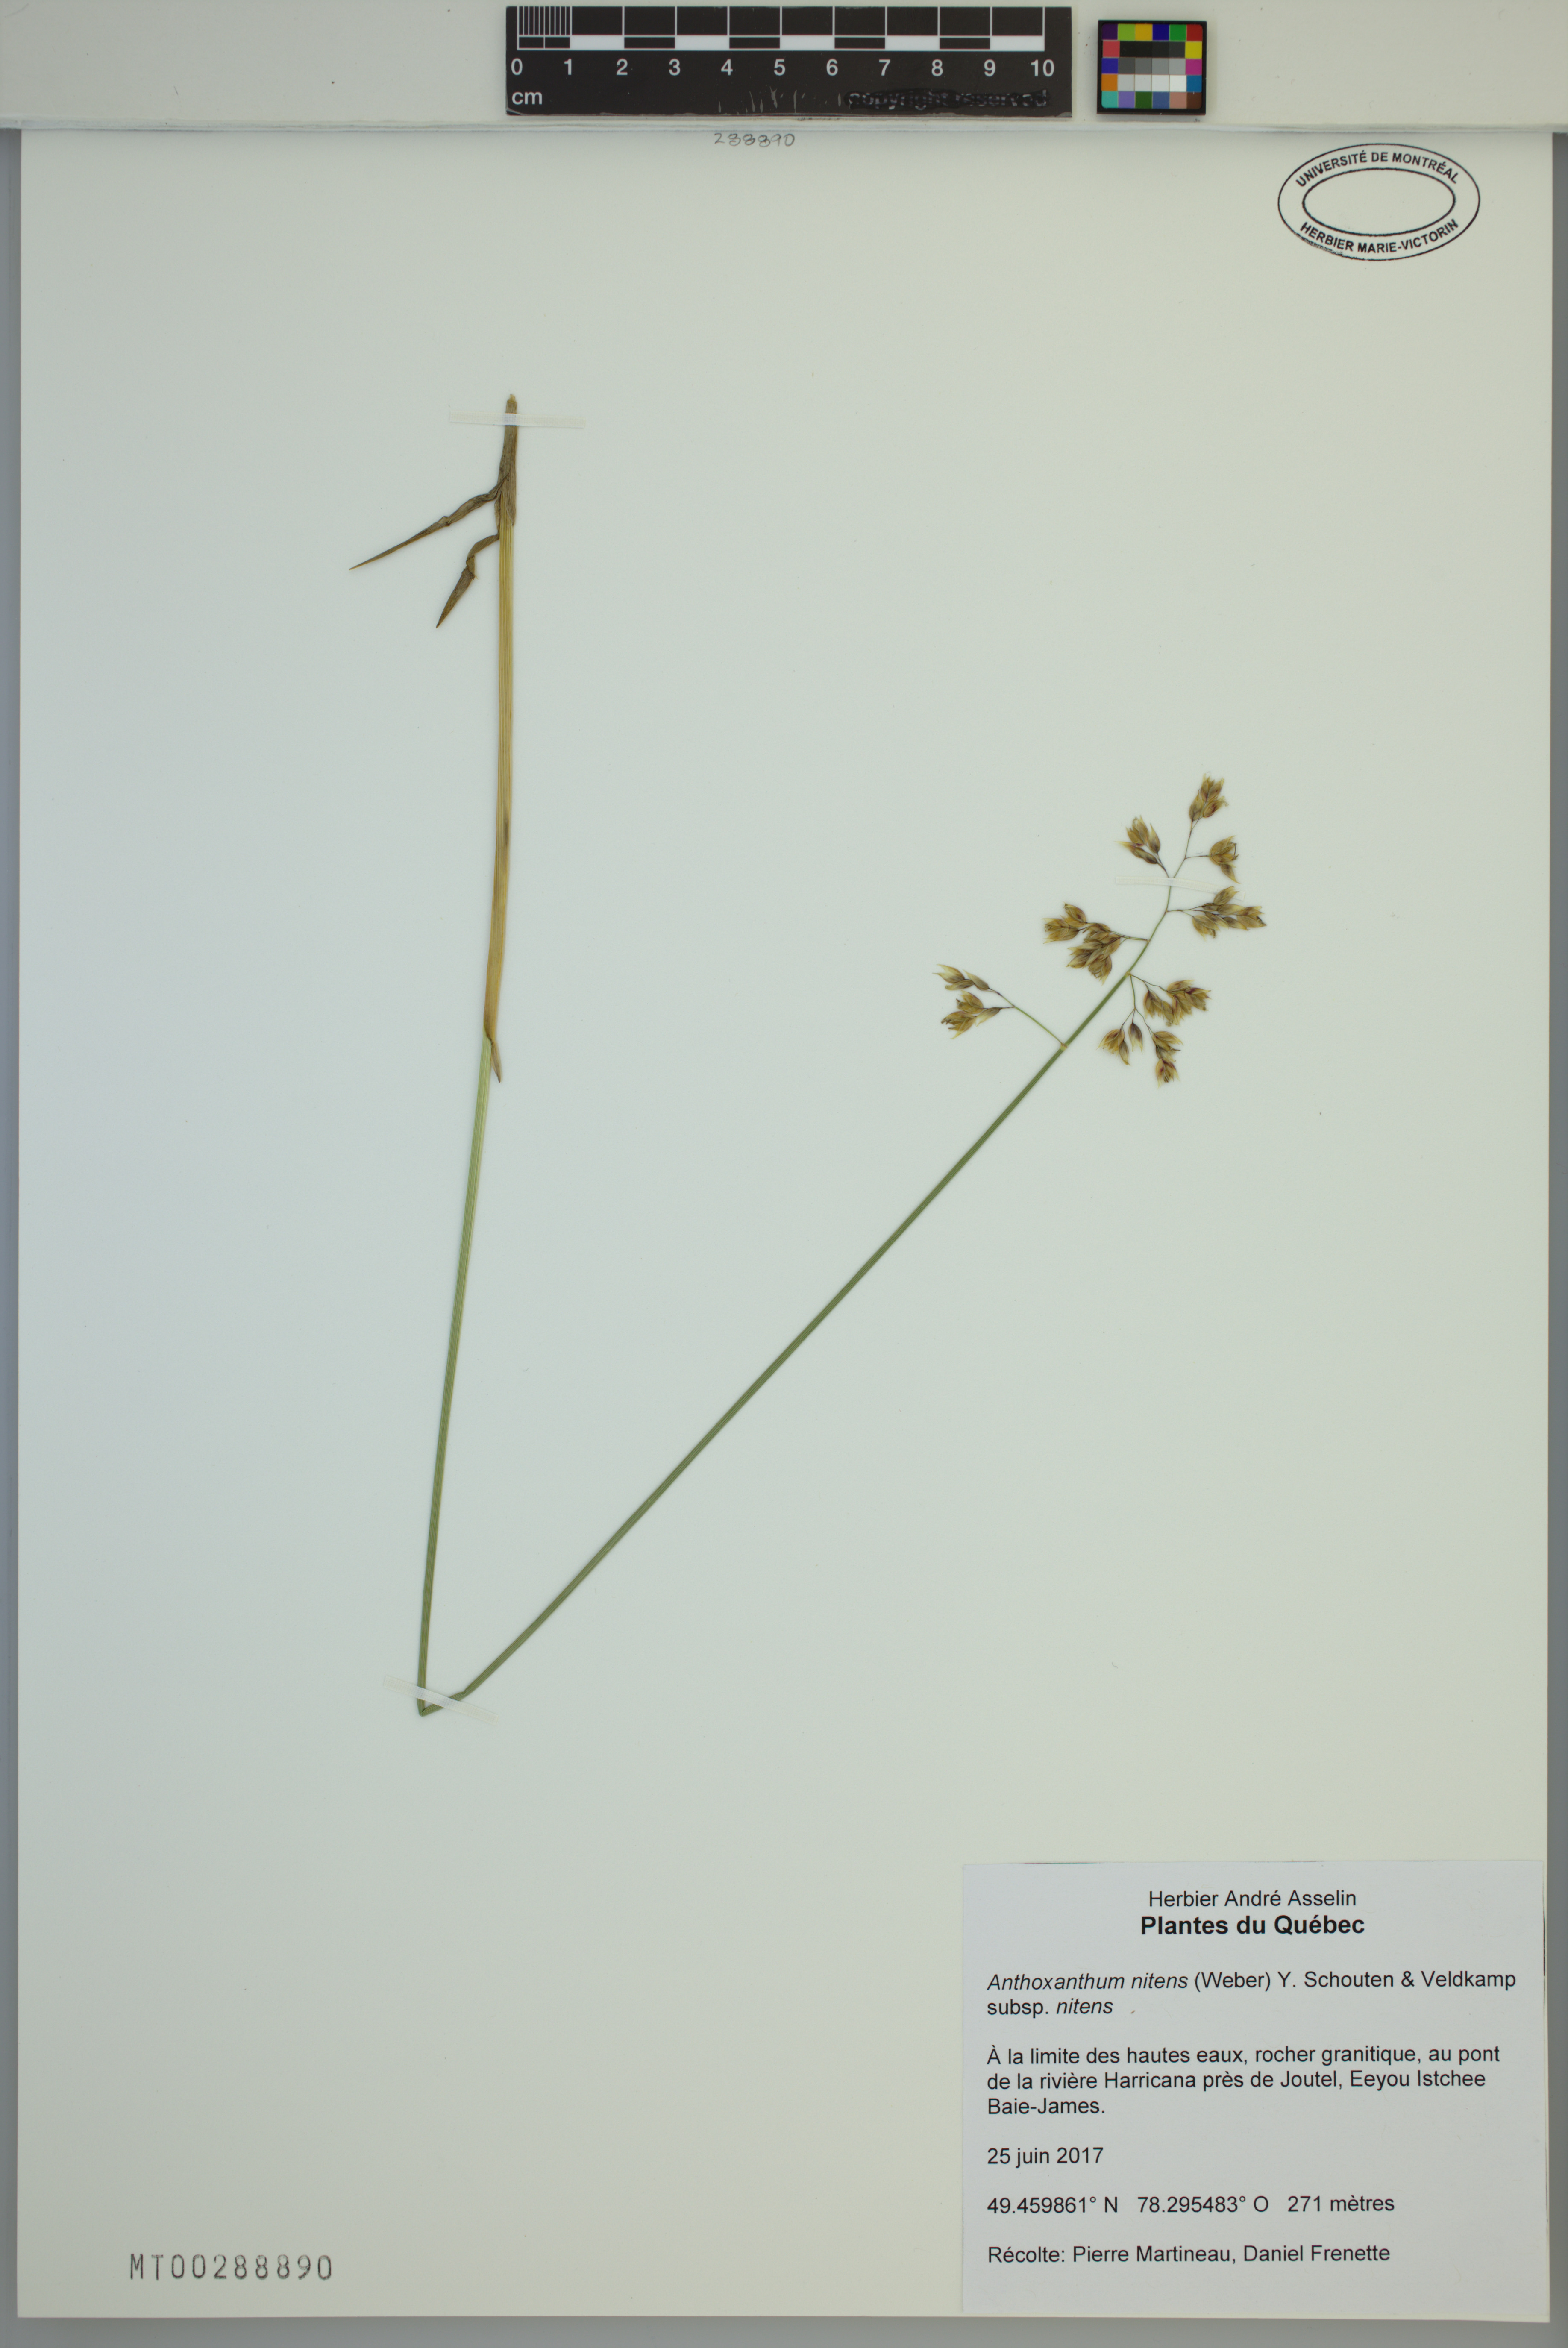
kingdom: Plantae
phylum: Tracheophyta
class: Liliopsida
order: Poales
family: Poaceae
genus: Anthoxanthum
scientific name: Anthoxanthum nitens
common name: Holy grass
